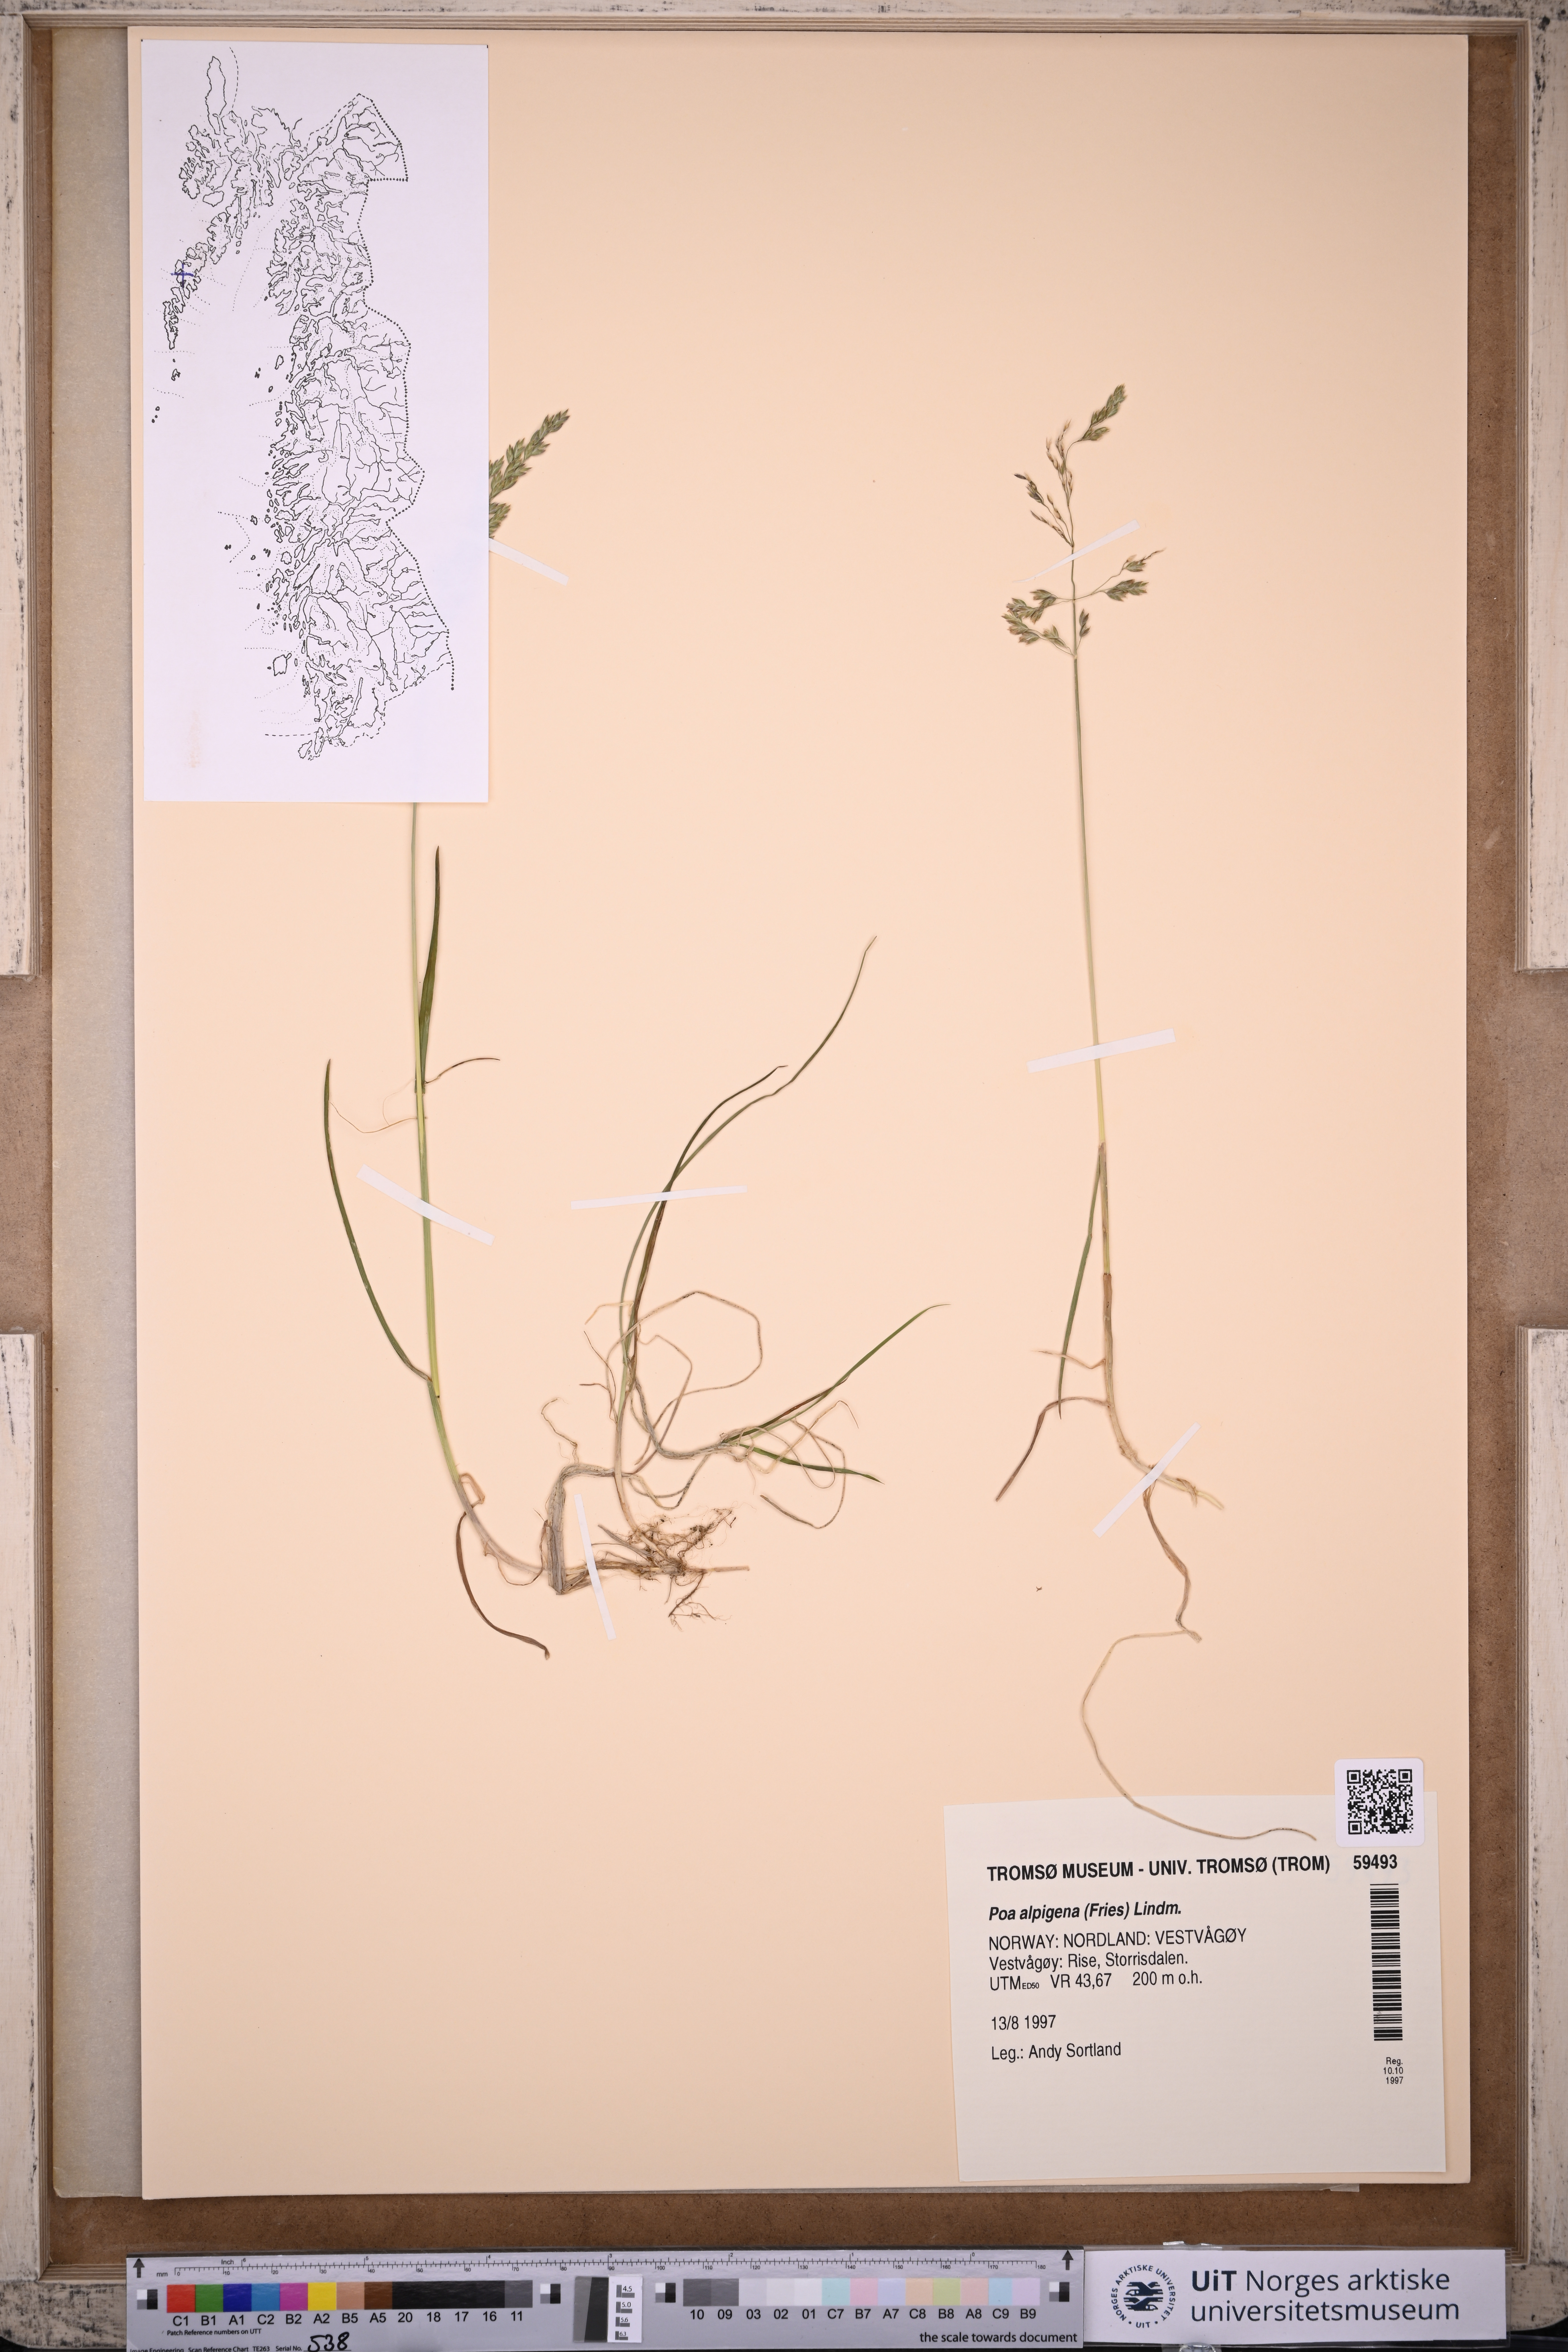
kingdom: Plantae
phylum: Tracheophyta
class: Liliopsida
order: Poales
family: Poaceae
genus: Poa
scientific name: Poa alpigena
